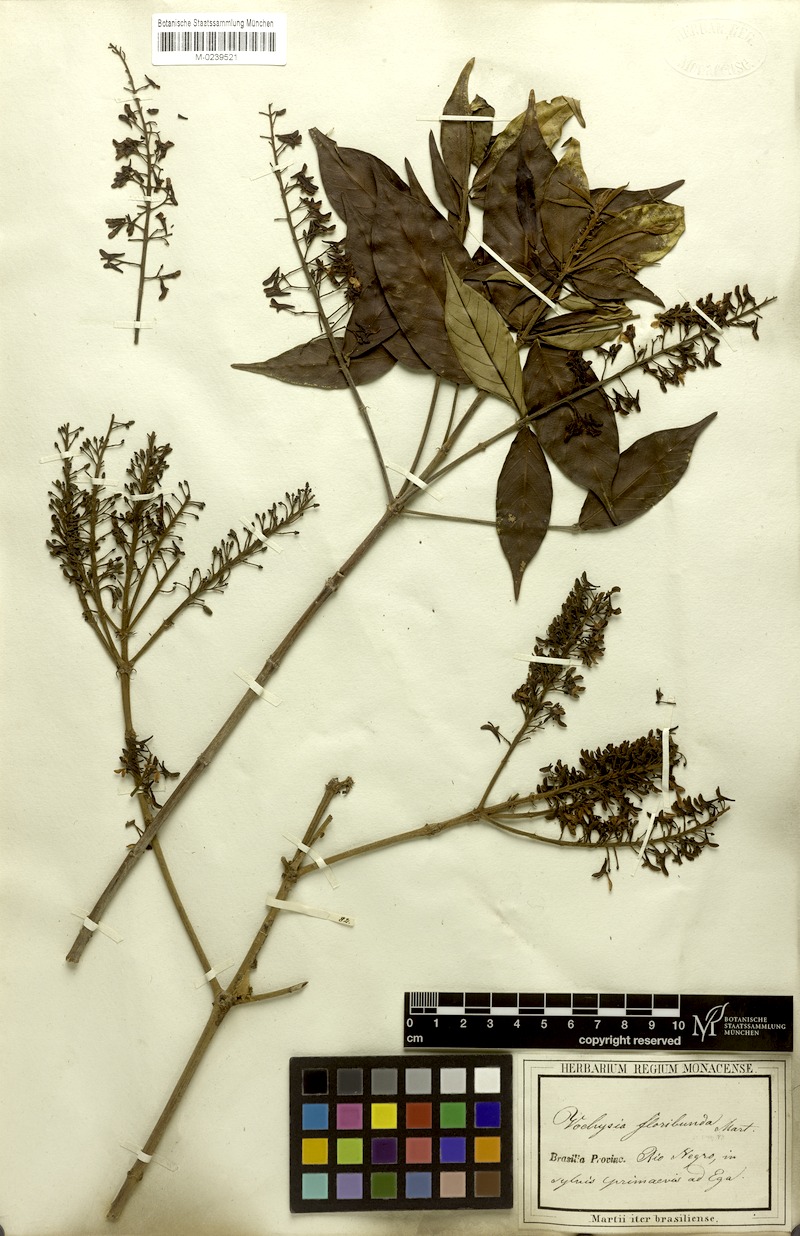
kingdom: Plantae
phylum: Tracheophyta
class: Magnoliopsida
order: Myrtales
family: Vochysiaceae
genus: Vochysia
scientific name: Vochysia floribunda
